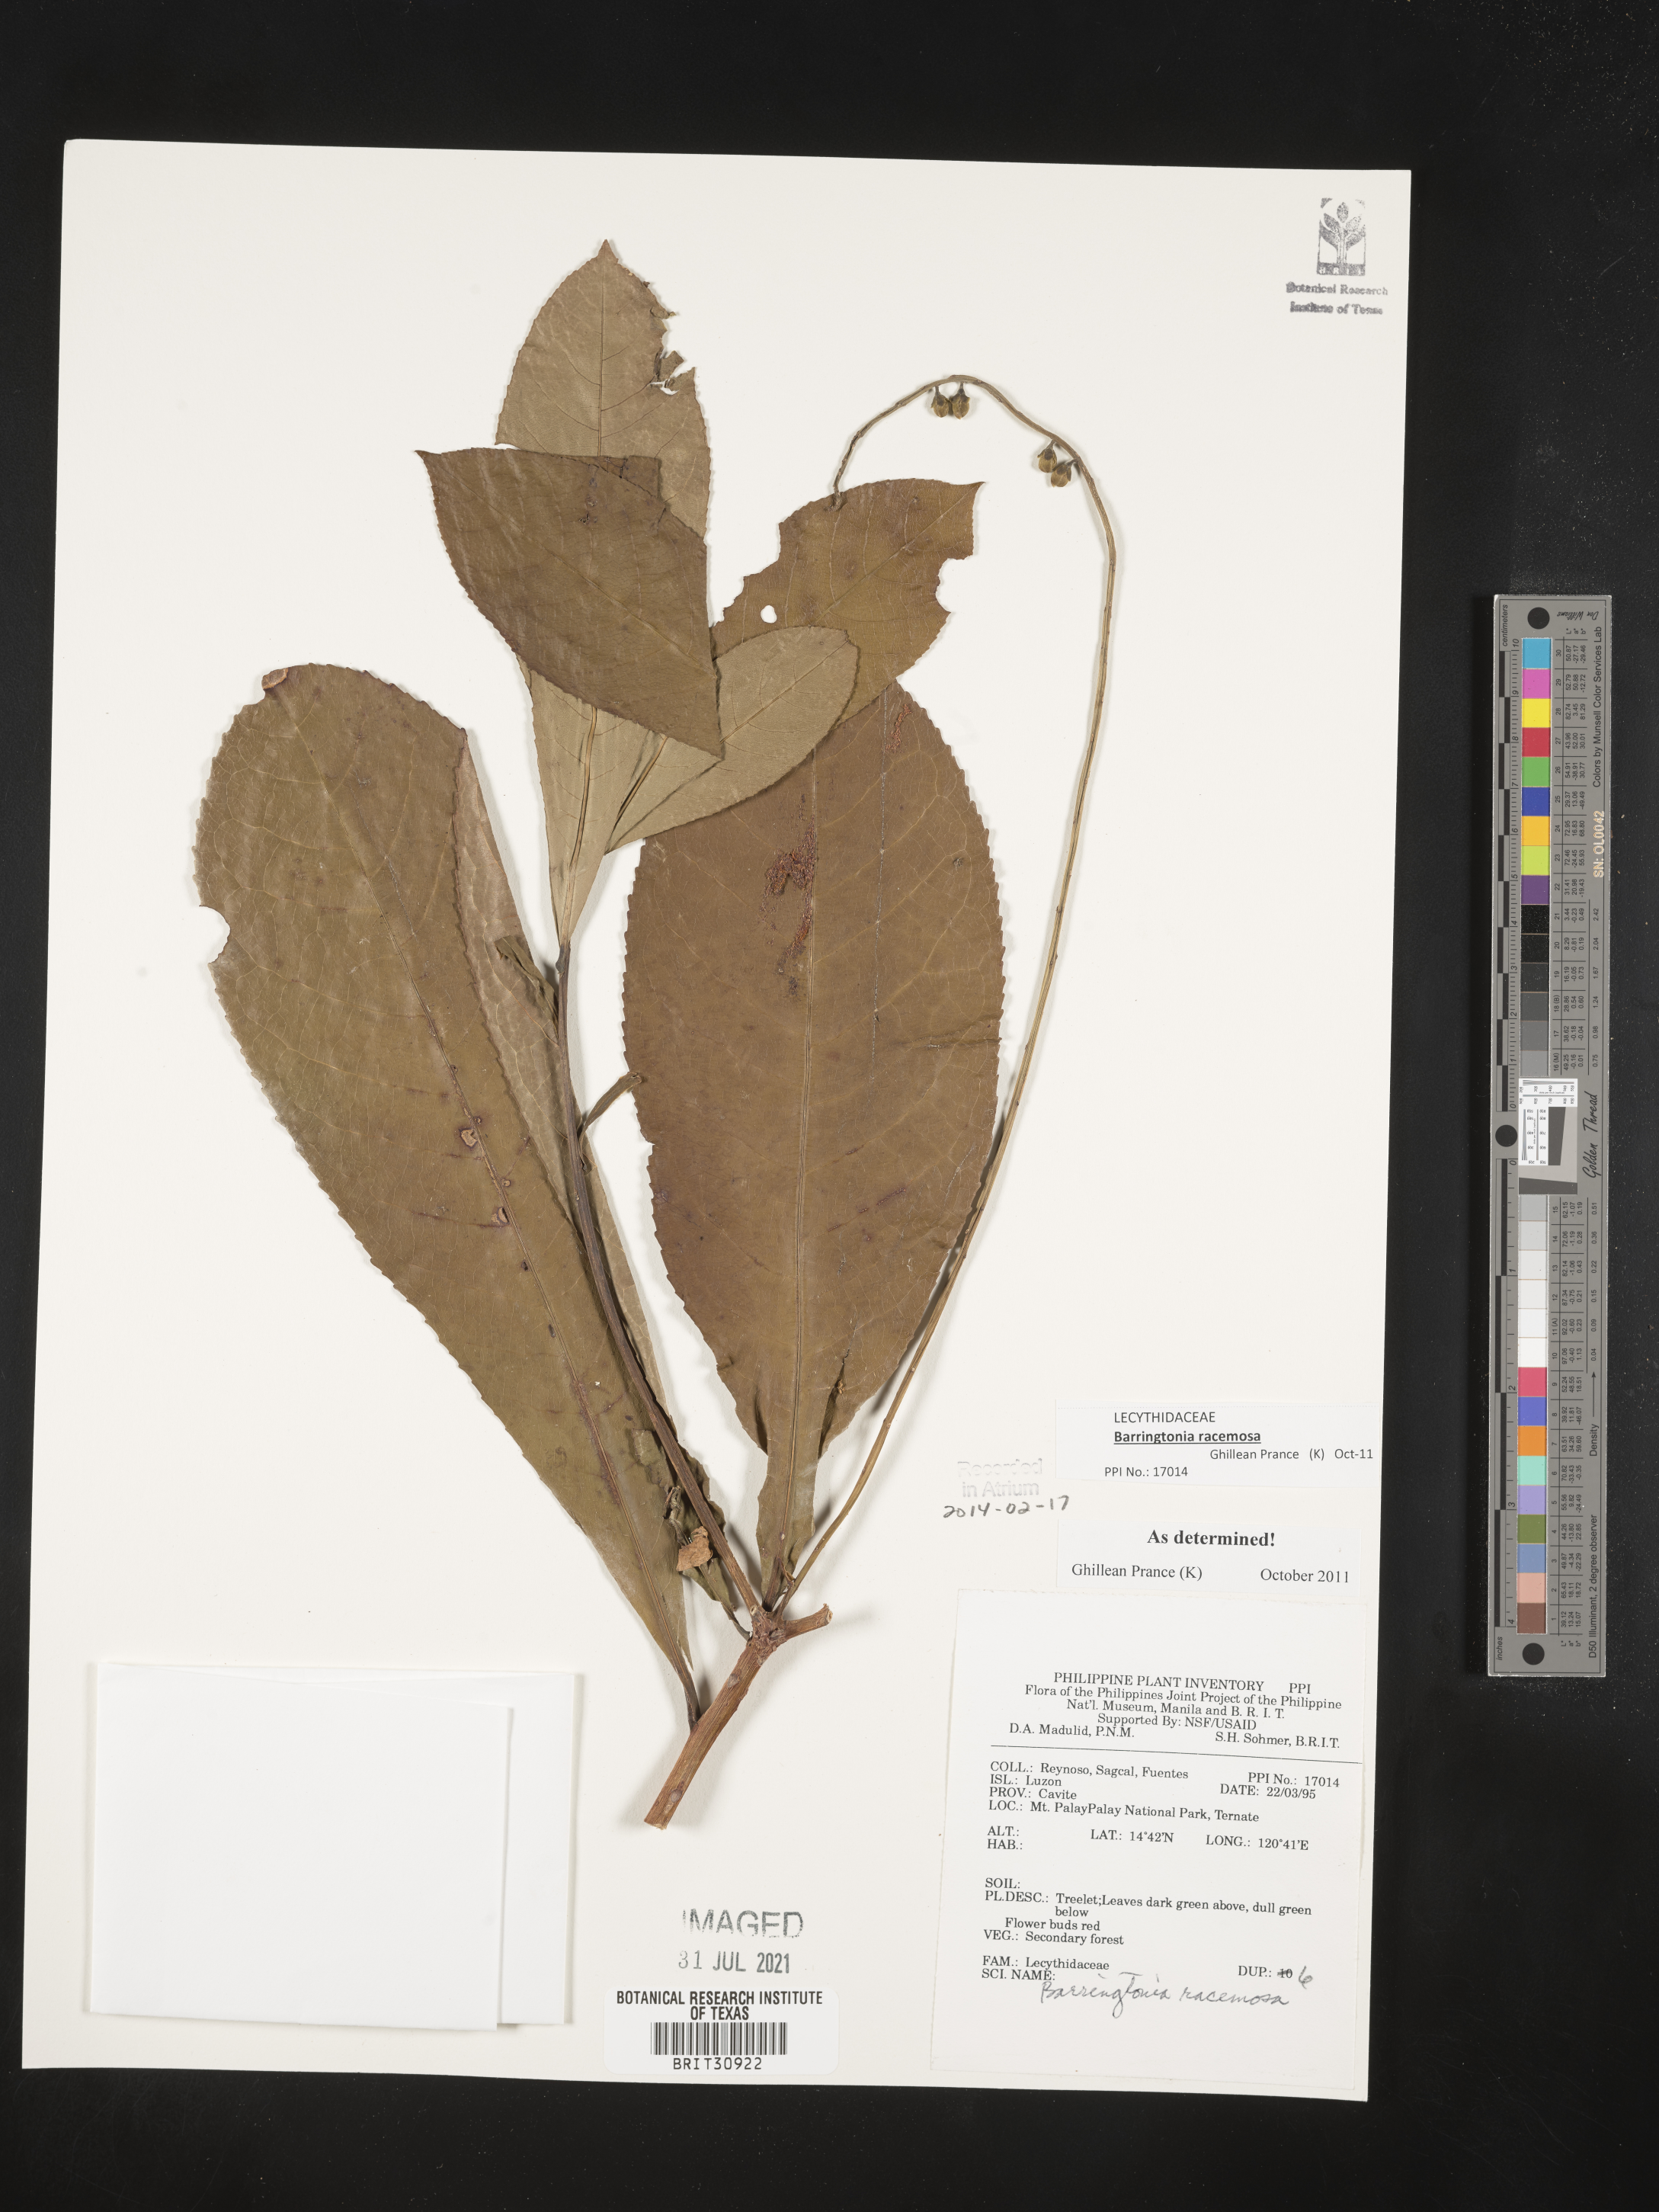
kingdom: Plantae
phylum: Tracheophyta
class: Magnoliopsida
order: Ericales
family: Lecythidaceae
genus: Barringtonia
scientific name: Barringtonia racemosa
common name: Brackwater mangrove
